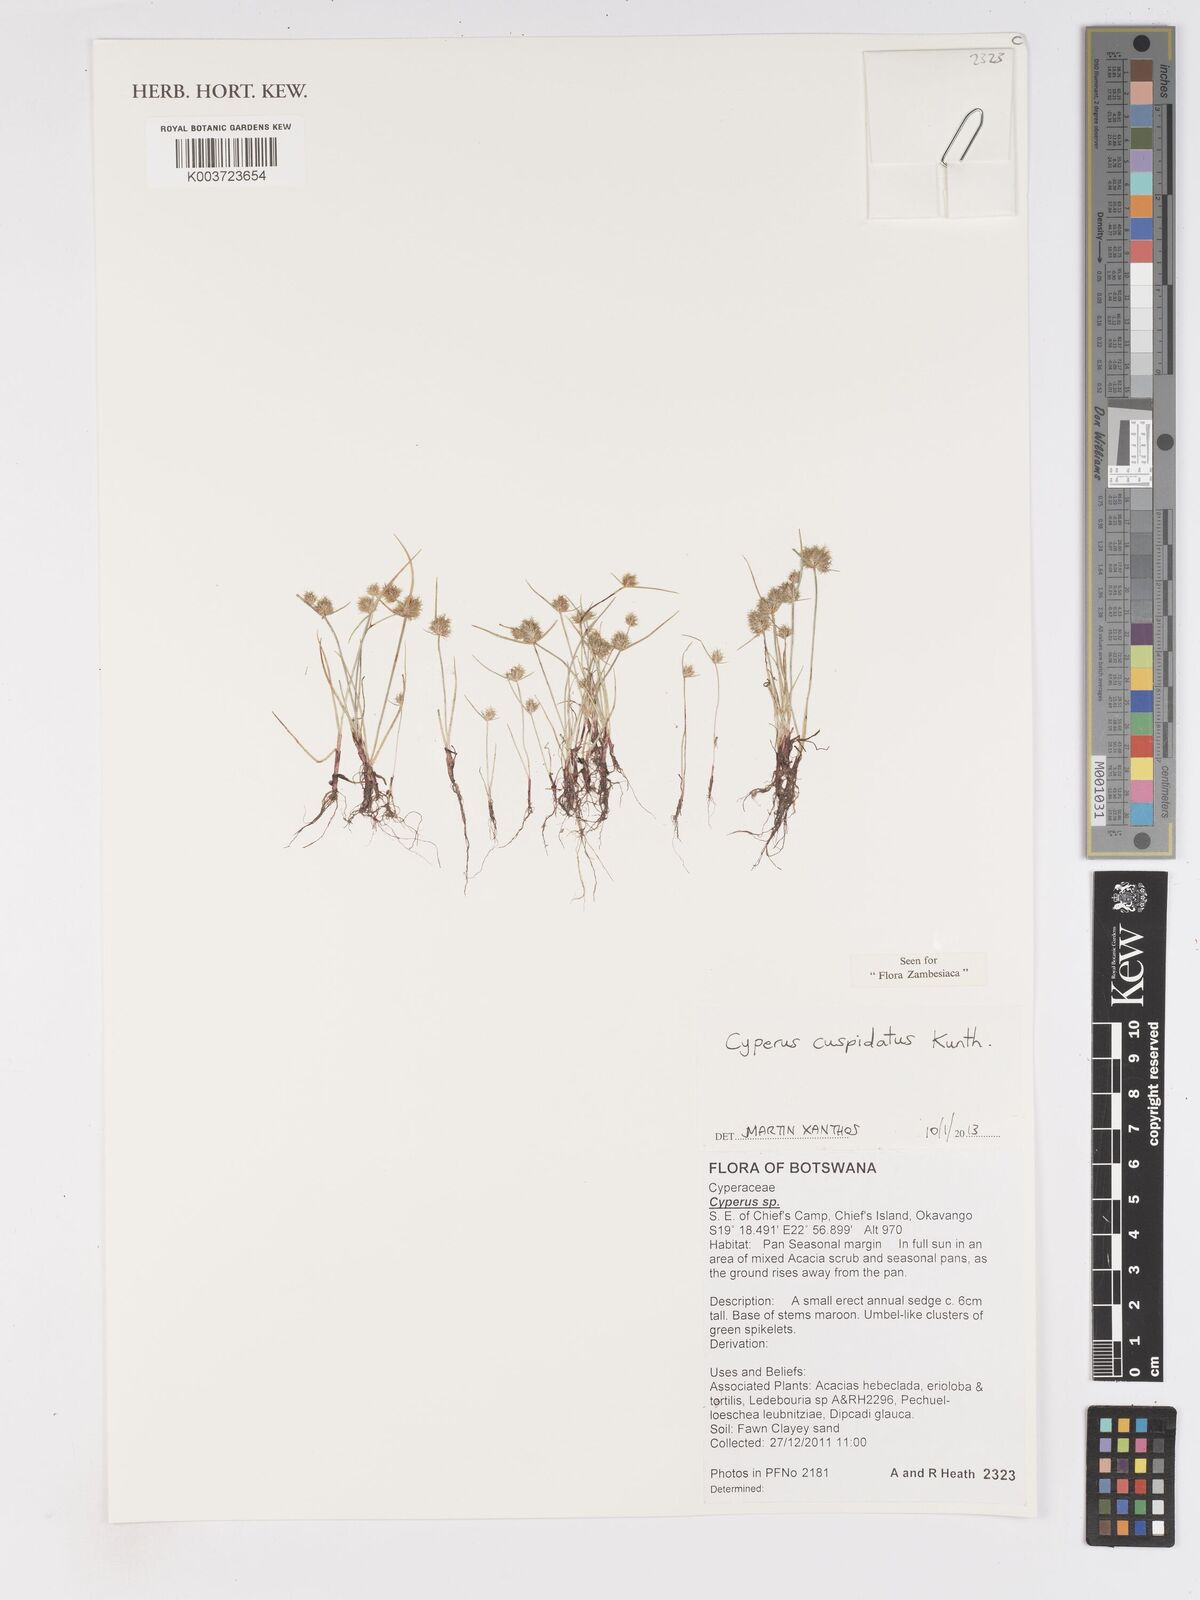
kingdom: Plantae
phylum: Tracheophyta
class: Liliopsida
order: Poales
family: Cyperaceae
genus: Cyperus
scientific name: Cyperus cuspidatus
